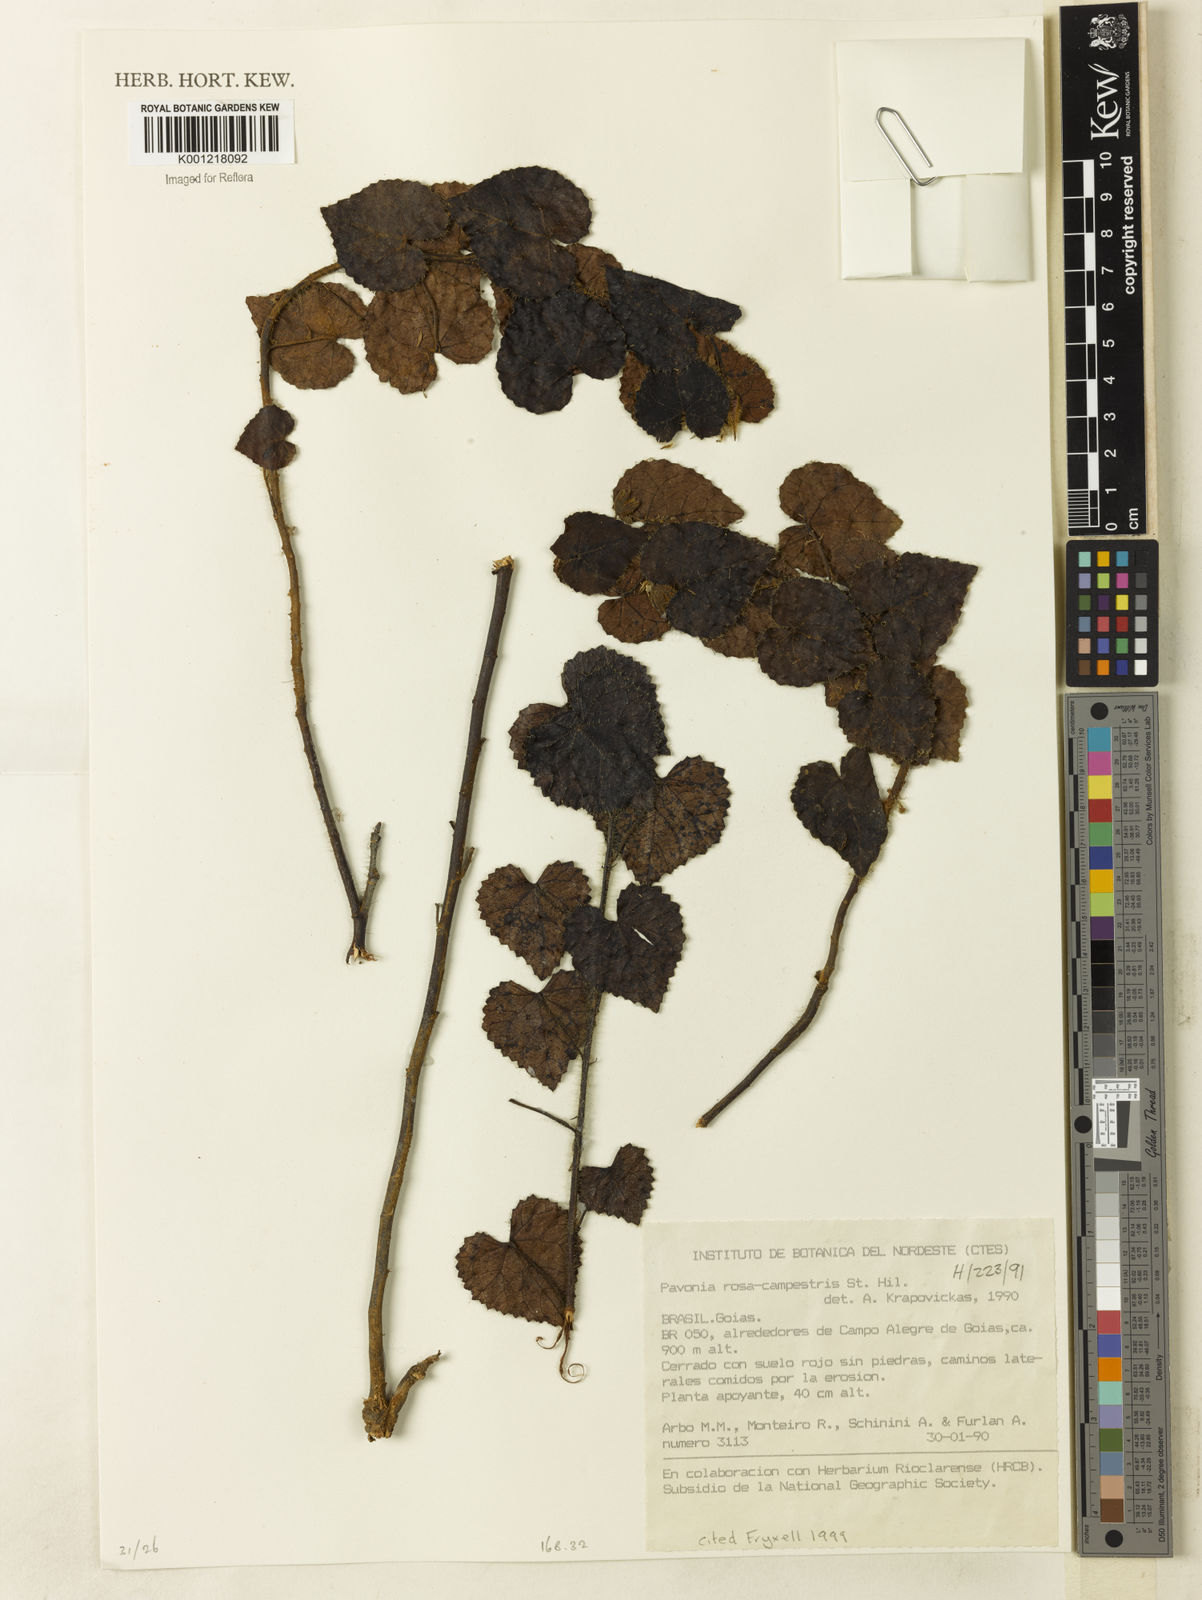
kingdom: Plantae
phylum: Tracheophyta
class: Magnoliopsida
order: Malvales
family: Malvaceae
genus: Pavonia
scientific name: Pavonia rosa-campestris
